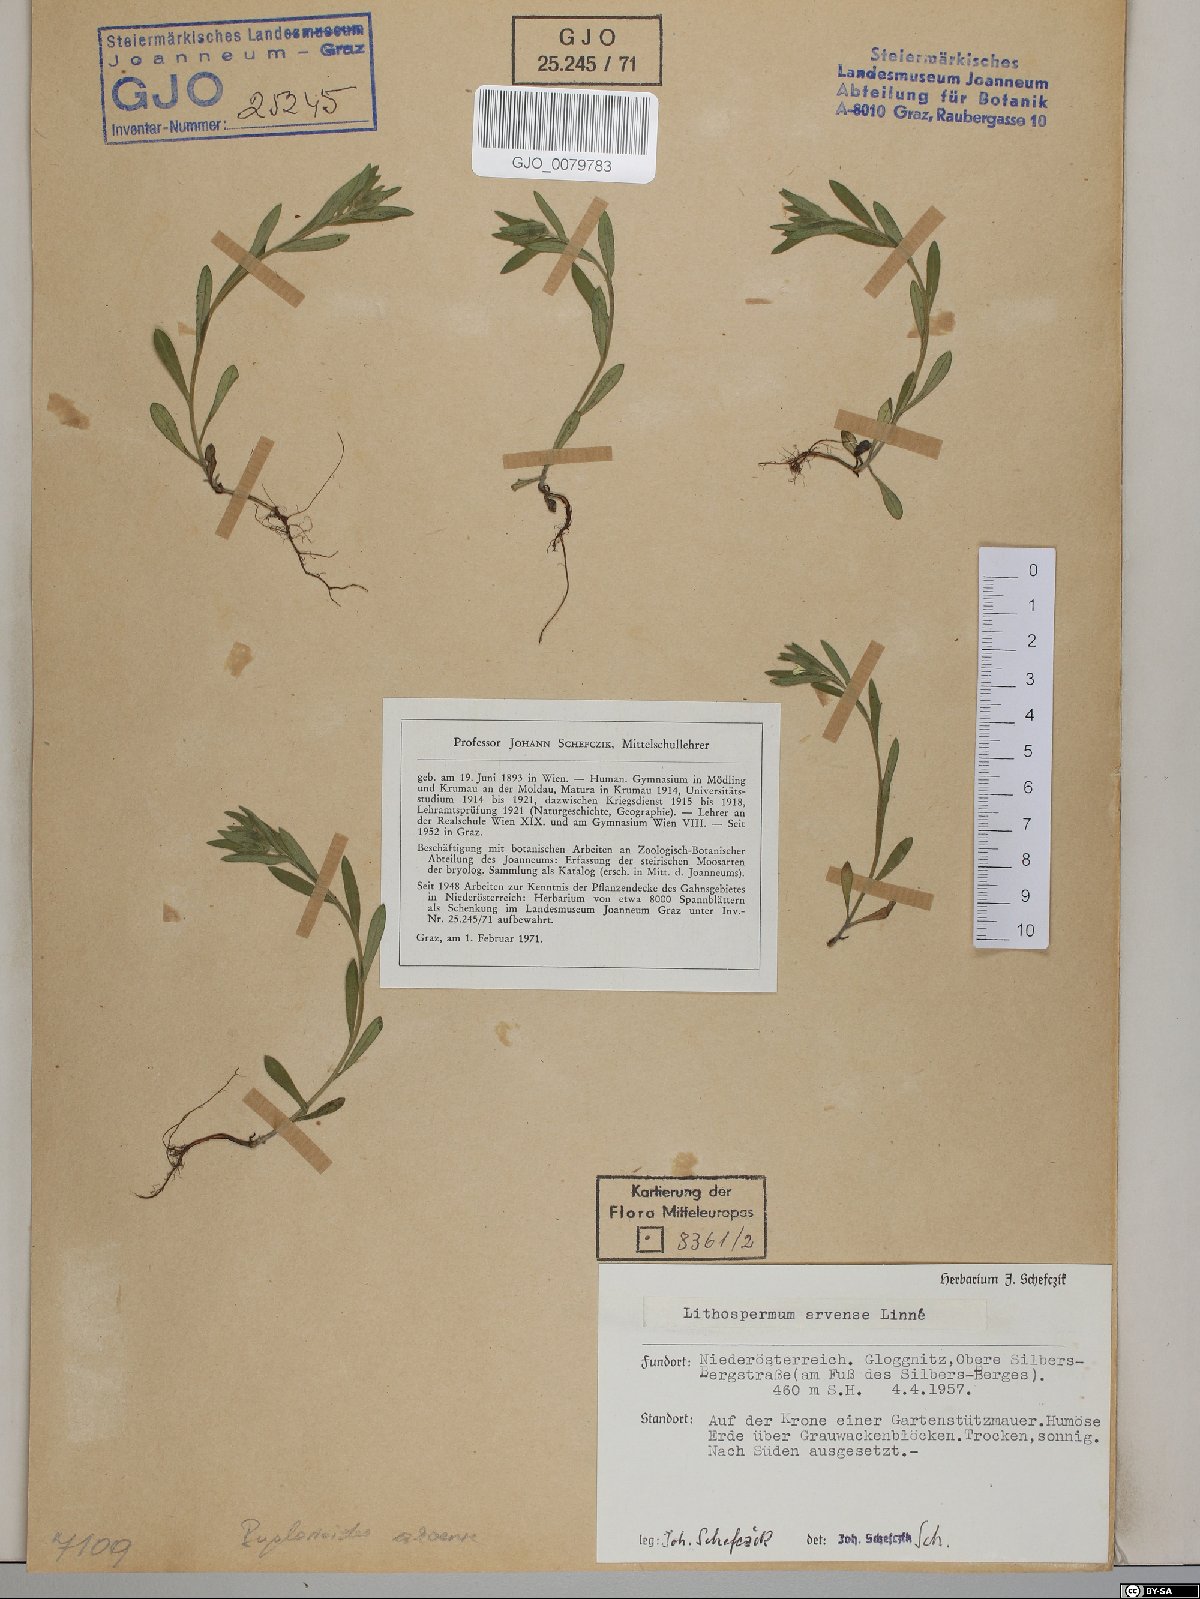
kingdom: Plantae
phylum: Tracheophyta
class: Magnoliopsida
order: Boraginales
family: Boraginaceae
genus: Buglossoides
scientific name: Buglossoides arvensis
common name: Corn gromwell
